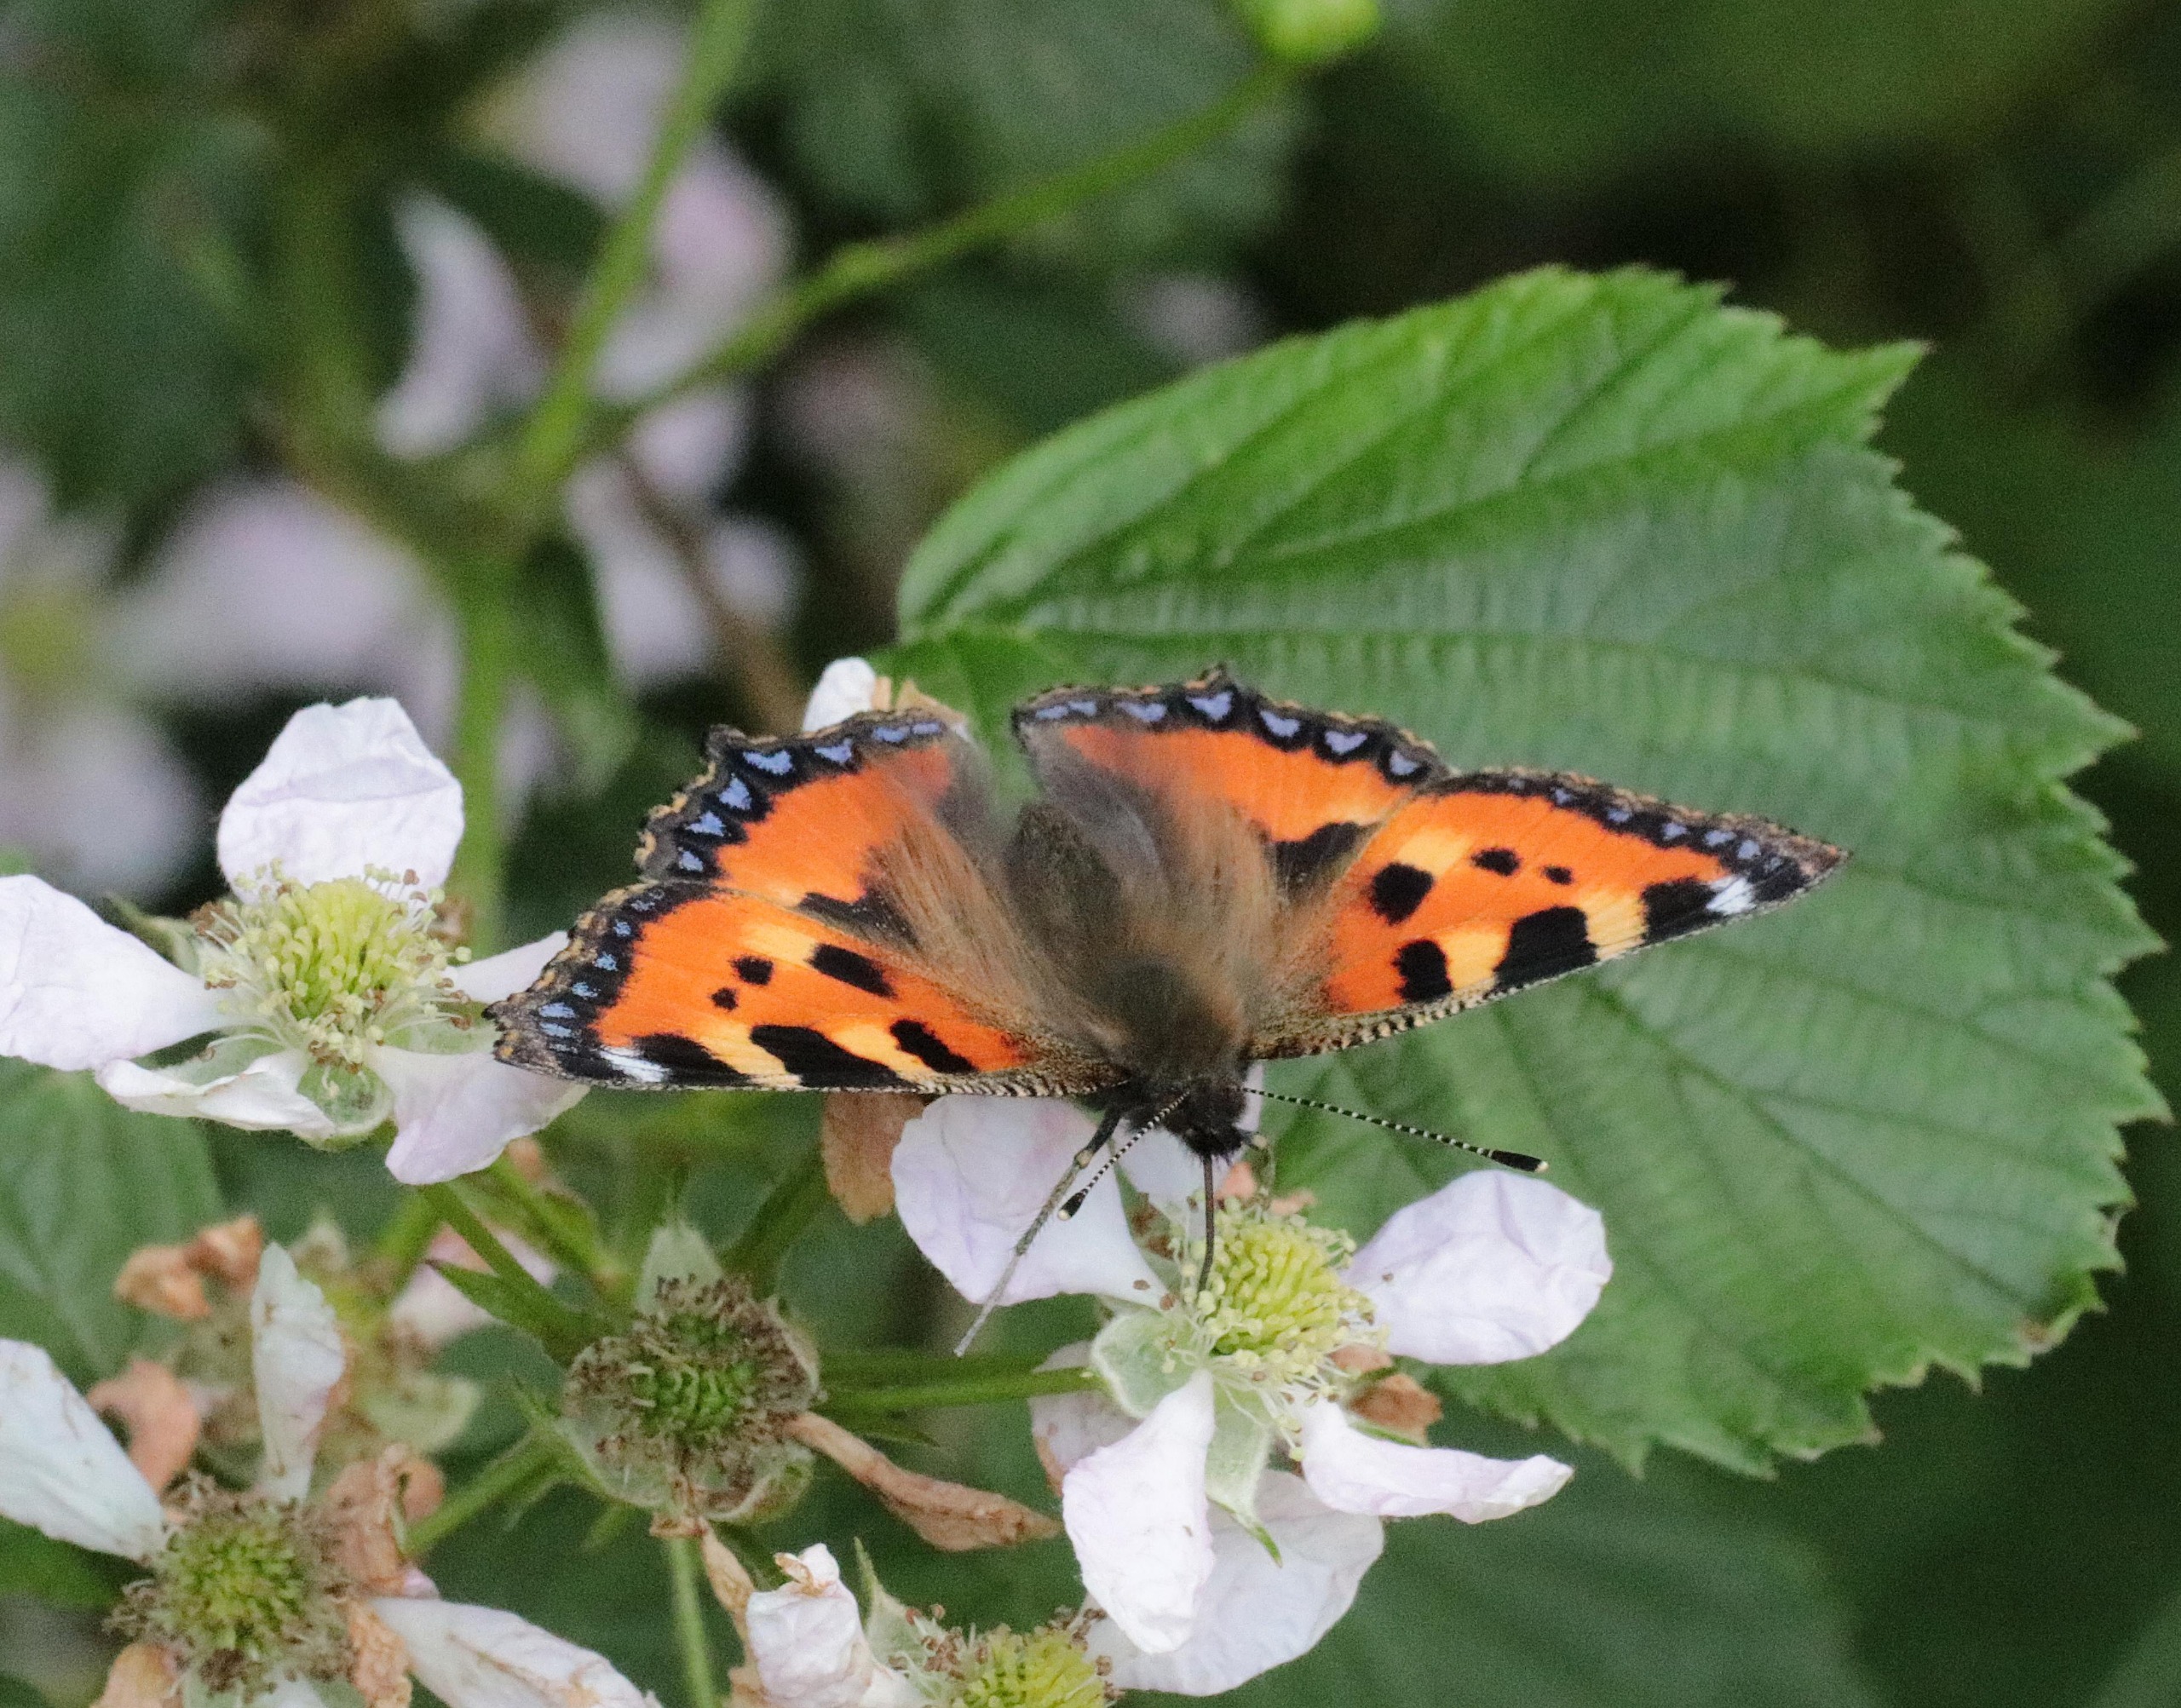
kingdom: Animalia
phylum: Arthropoda
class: Insecta
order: Lepidoptera
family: Nymphalidae
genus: Aglais
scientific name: Aglais urticae
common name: Nældens takvinge
